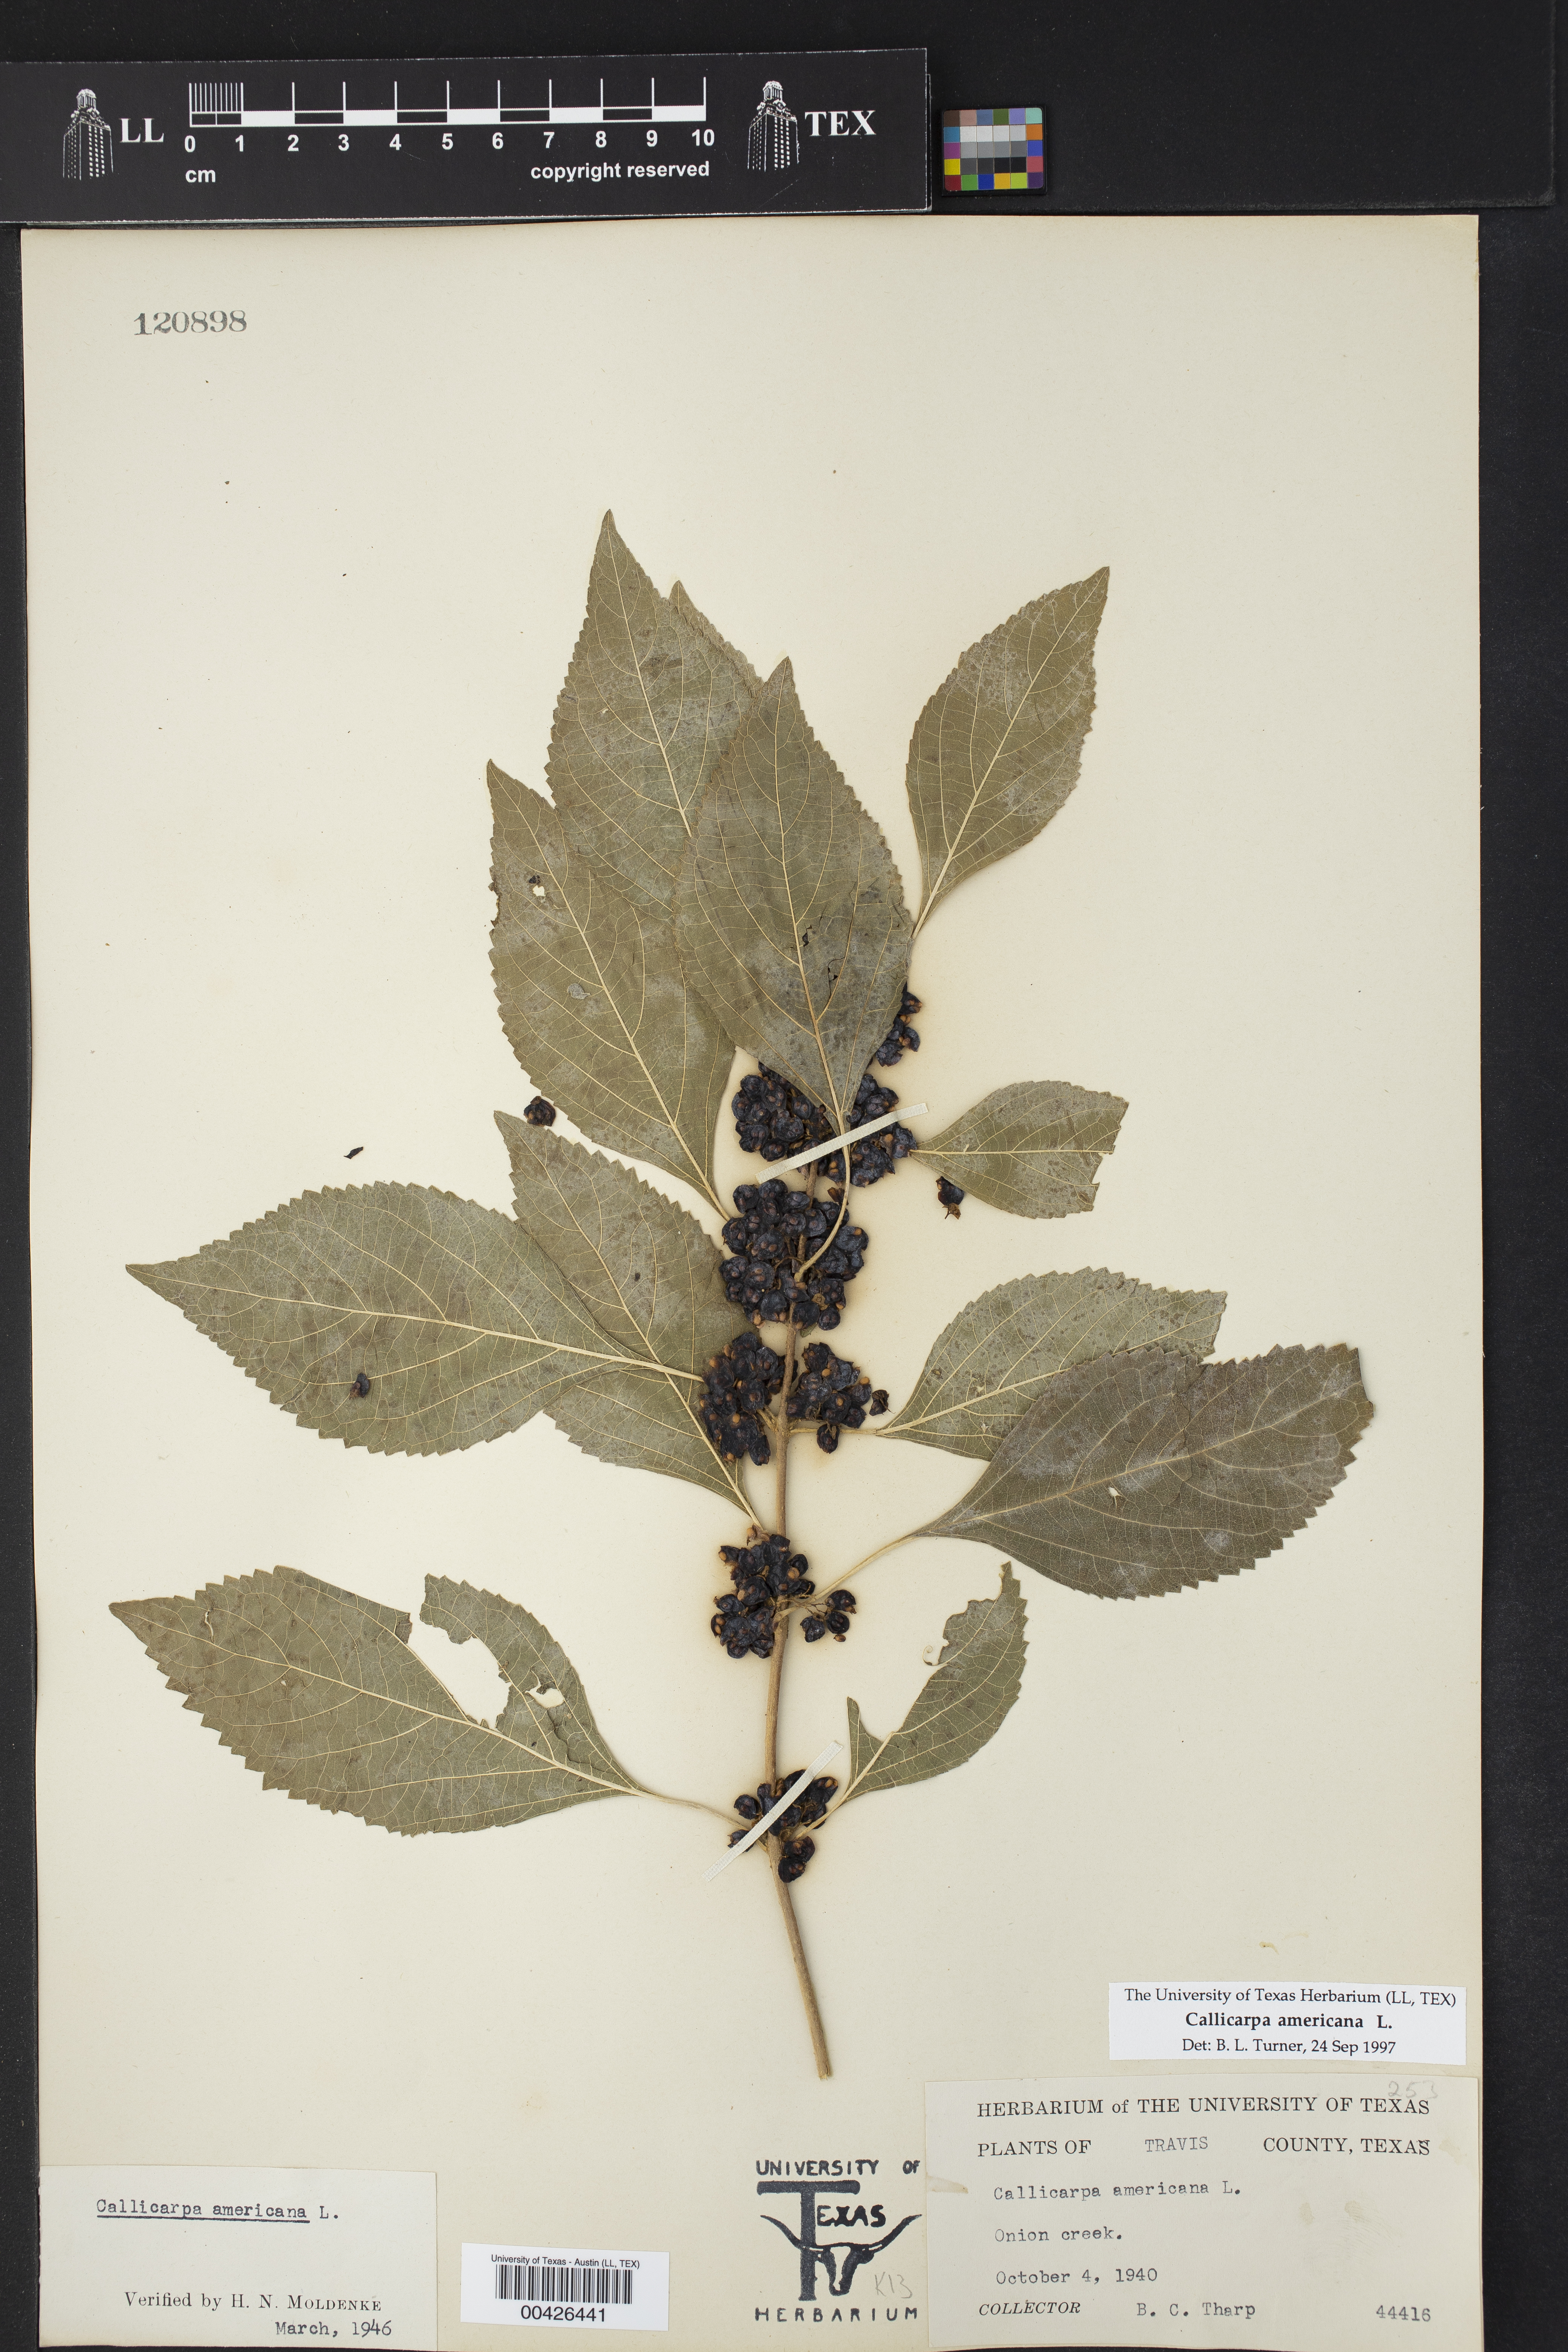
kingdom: Plantae
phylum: Tracheophyta
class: Magnoliopsida
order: Lamiales
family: Lamiaceae
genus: Callicarpa
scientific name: Callicarpa americana
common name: American beautyberry
